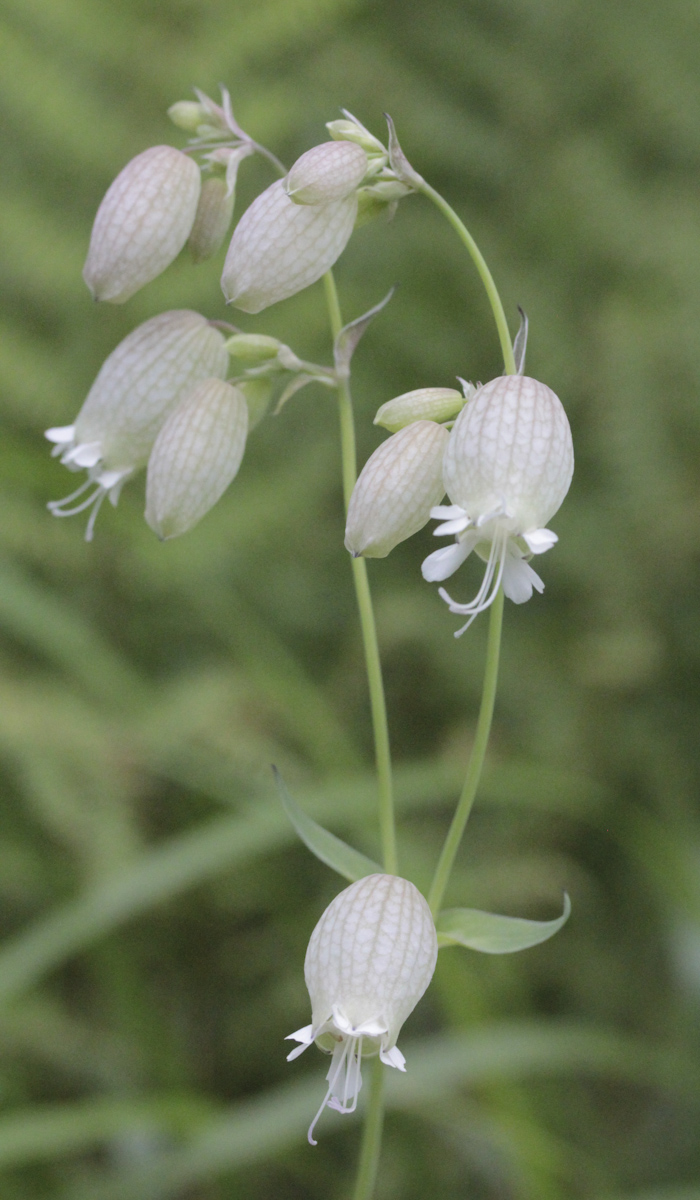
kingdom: Plantae
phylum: Tracheophyta
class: Magnoliopsida
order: Caryophyllales
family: Caryophyllaceae
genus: Silene
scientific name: Silene vulgaris
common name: Bladder campion
